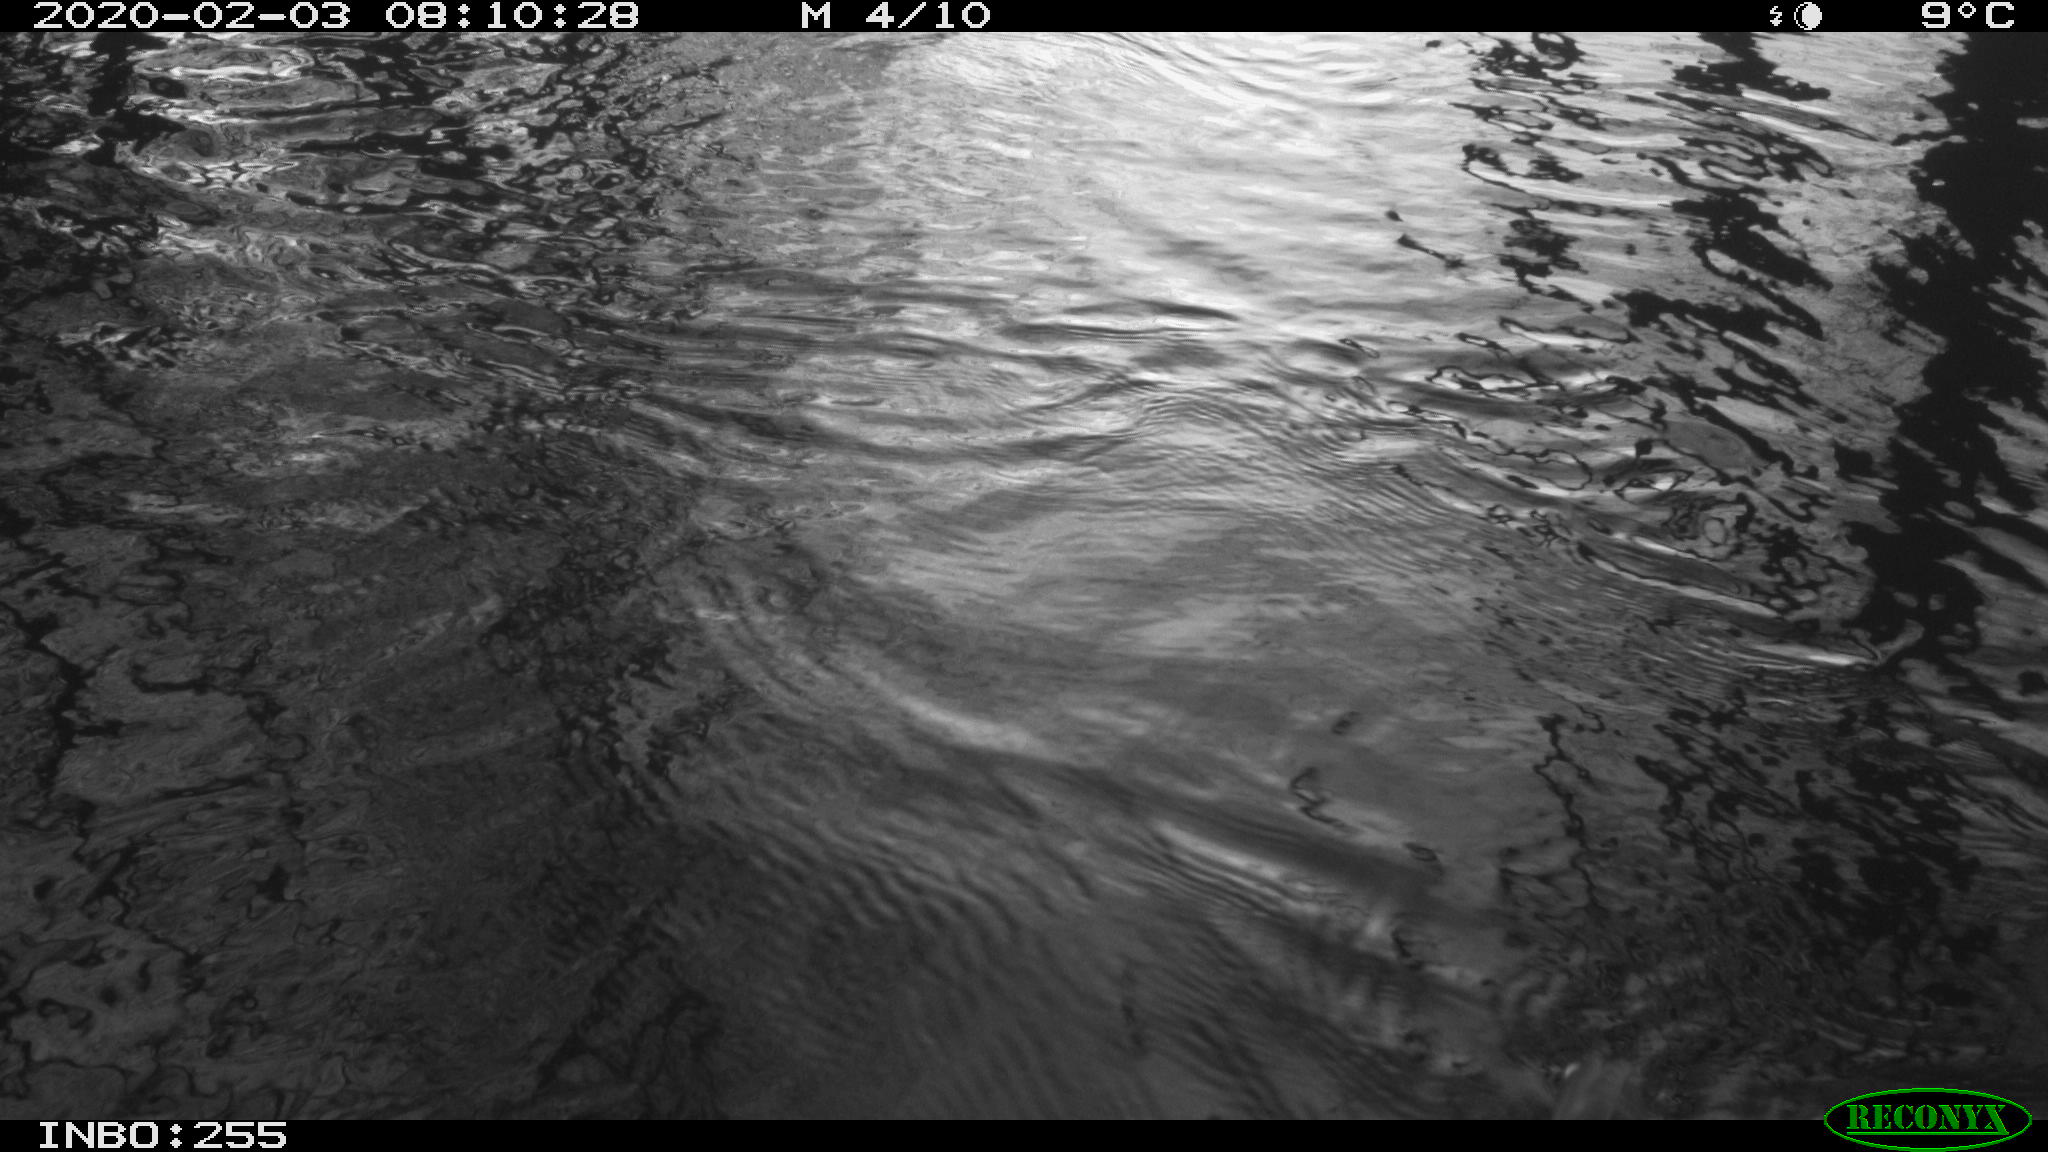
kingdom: Animalia
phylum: Chordata
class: Aves
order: Gruiformes
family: Rallidae
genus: Gallinula
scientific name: Gallinula chloropus
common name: Common moorhen
